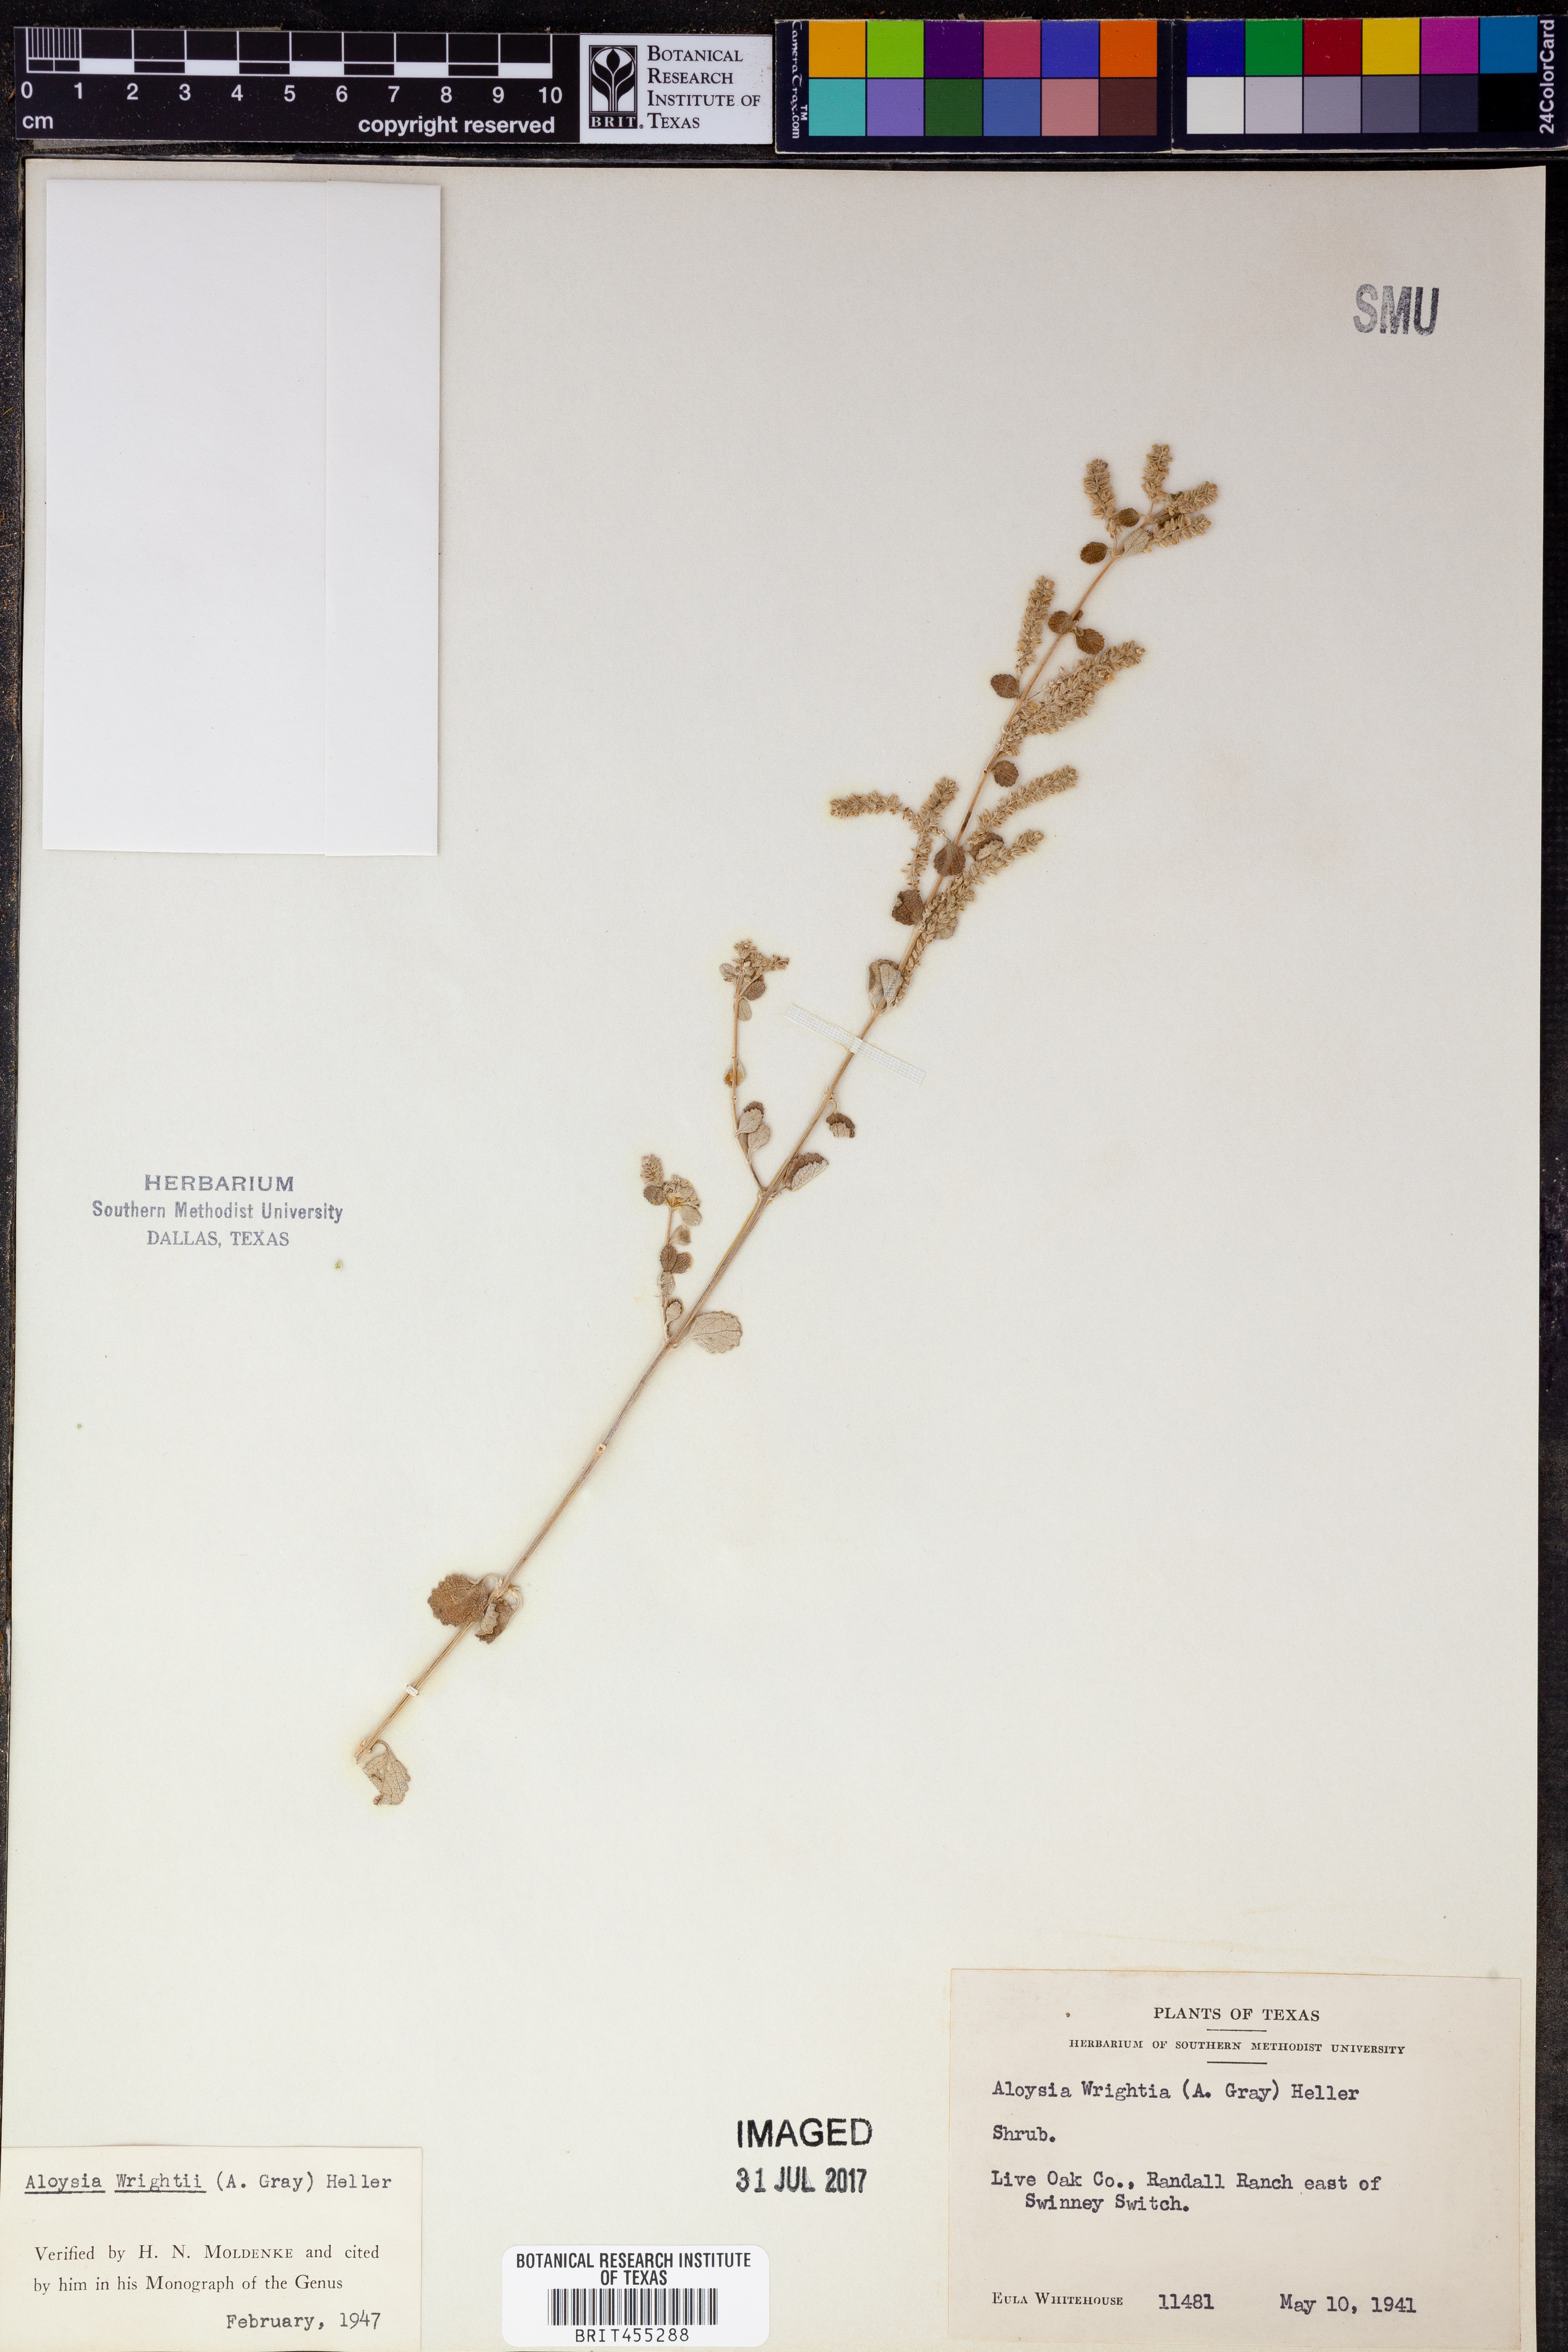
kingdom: Plantae
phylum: Tracheophyta
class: Magnoliopsida
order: Lamiales
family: Verbenaceae
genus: Aloysia
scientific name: Aloysia wrightii
